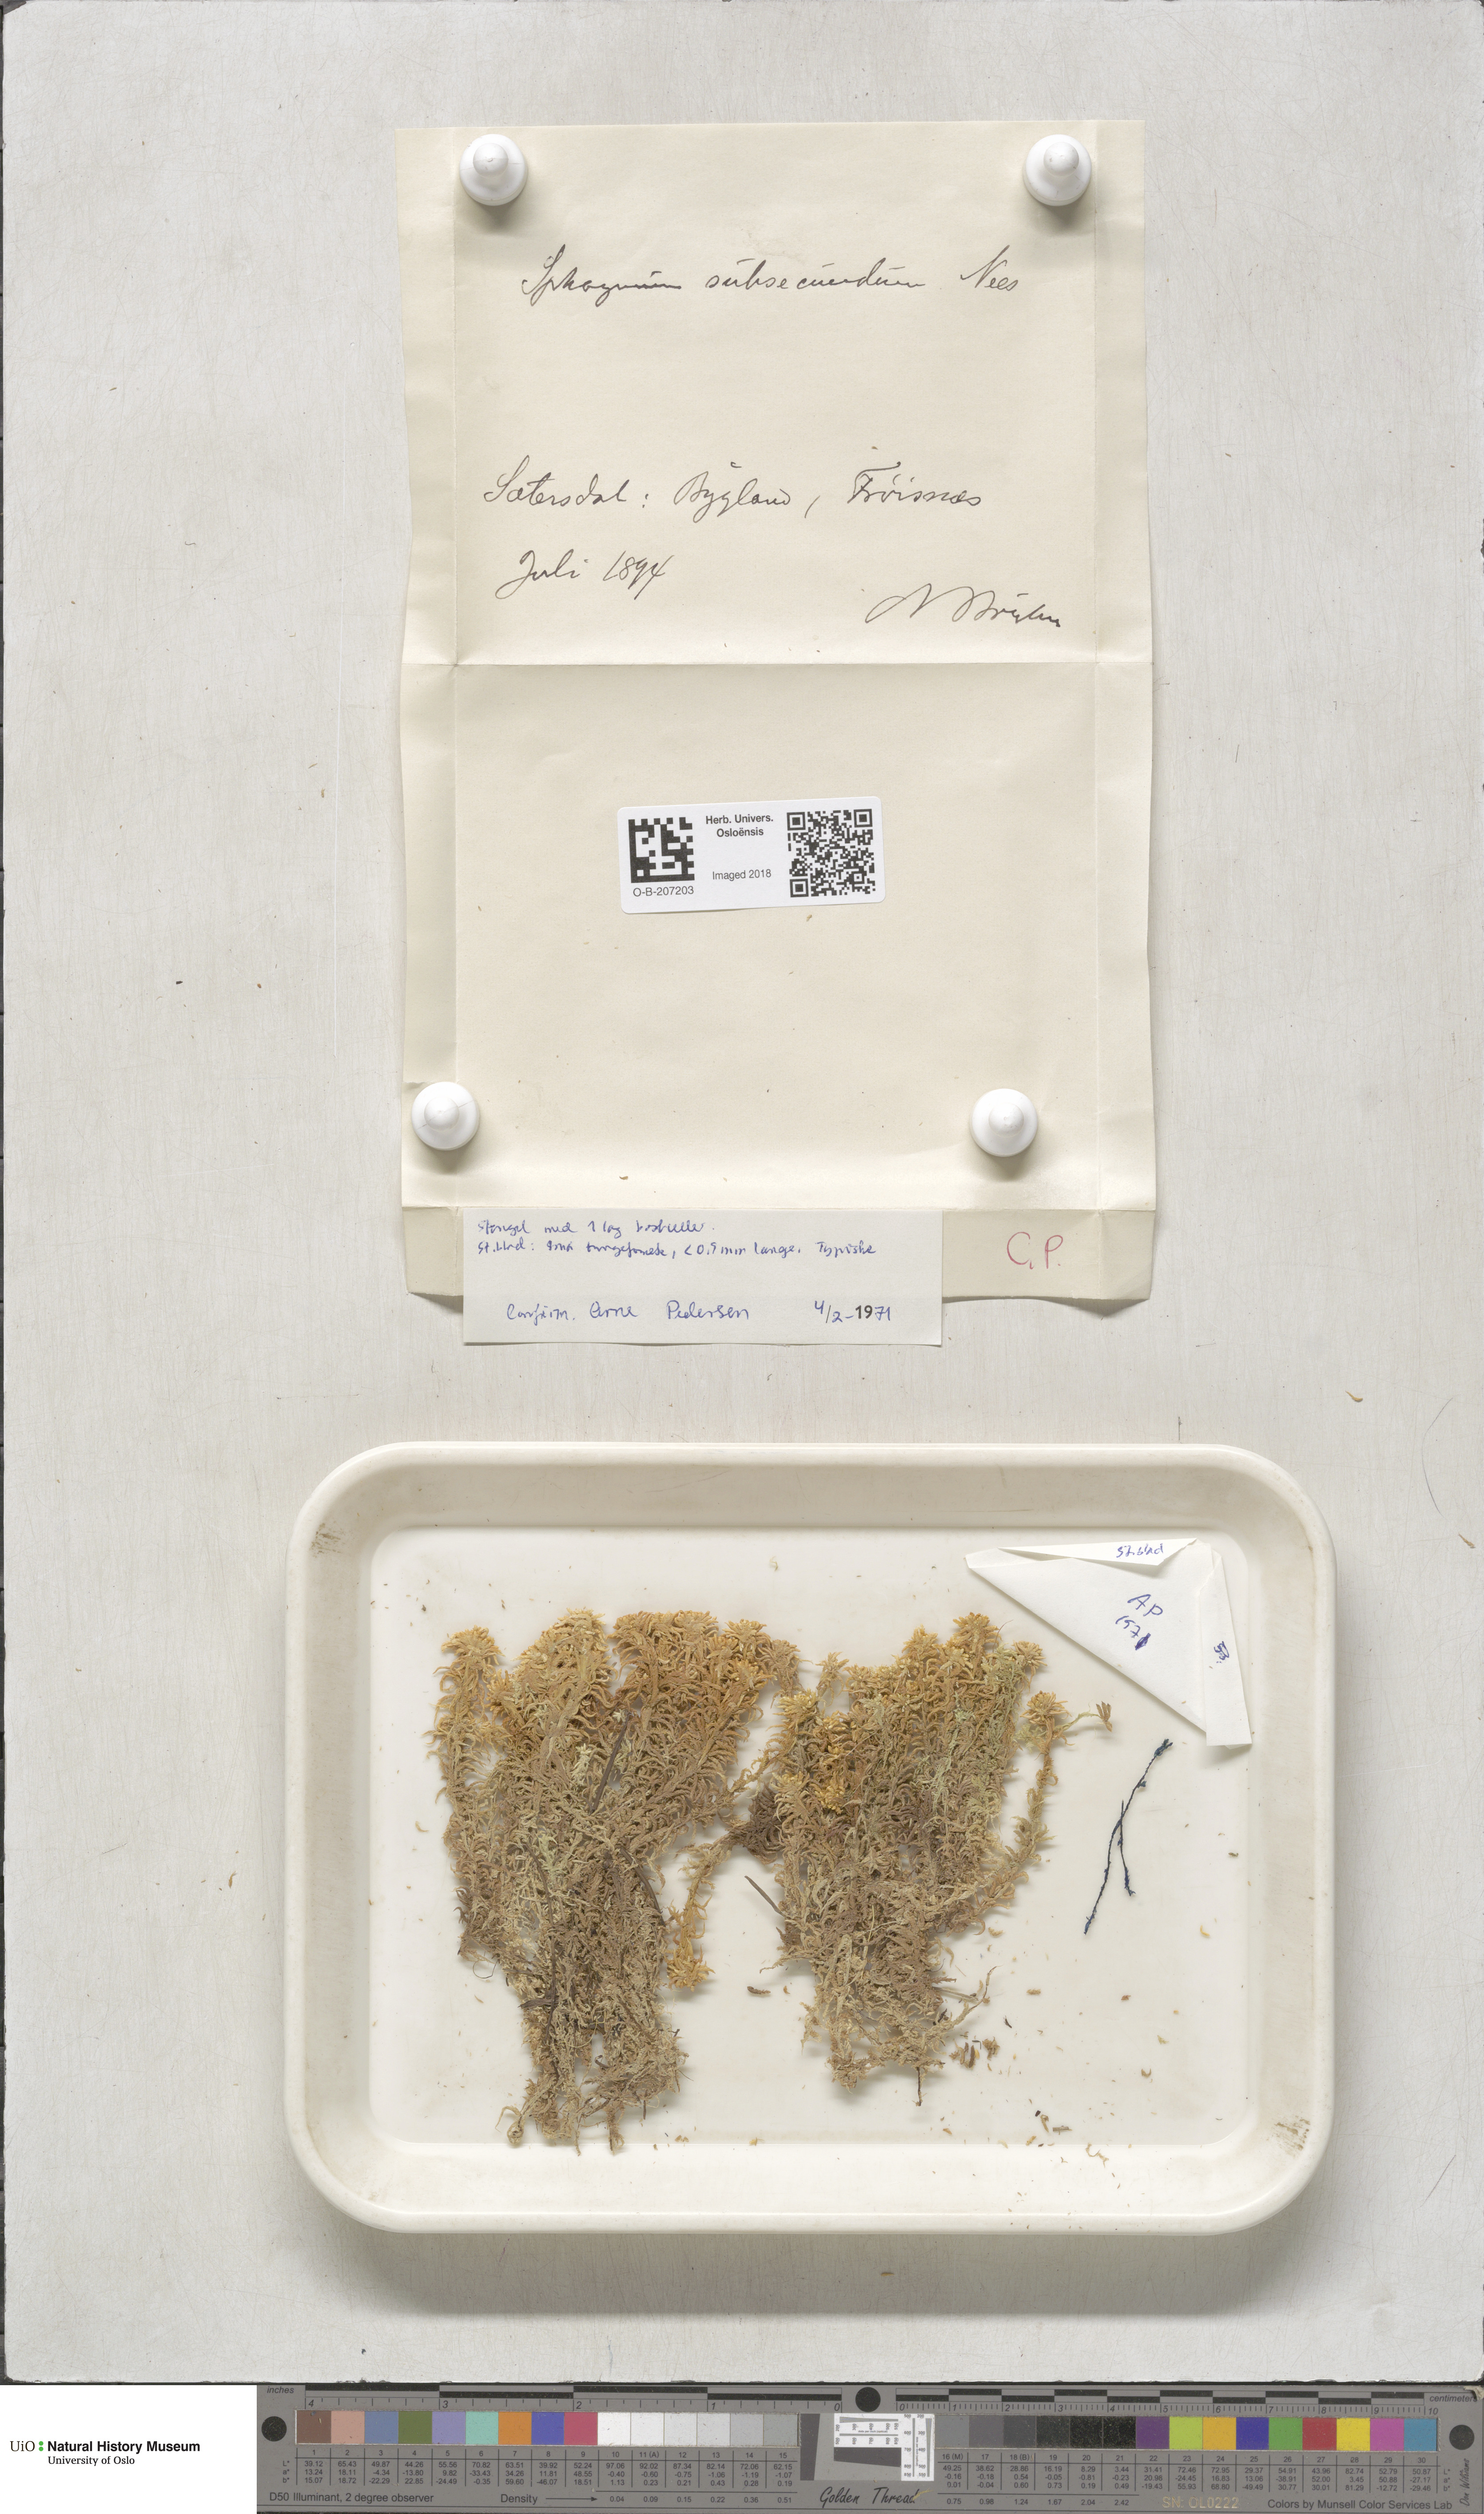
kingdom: Plantae
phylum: Bryophyta
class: Sphagnopsida
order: Sphagnales
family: Sphagnaceae
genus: Sphagnum
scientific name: Sphagnum subsecundum
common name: Orange peat moss
